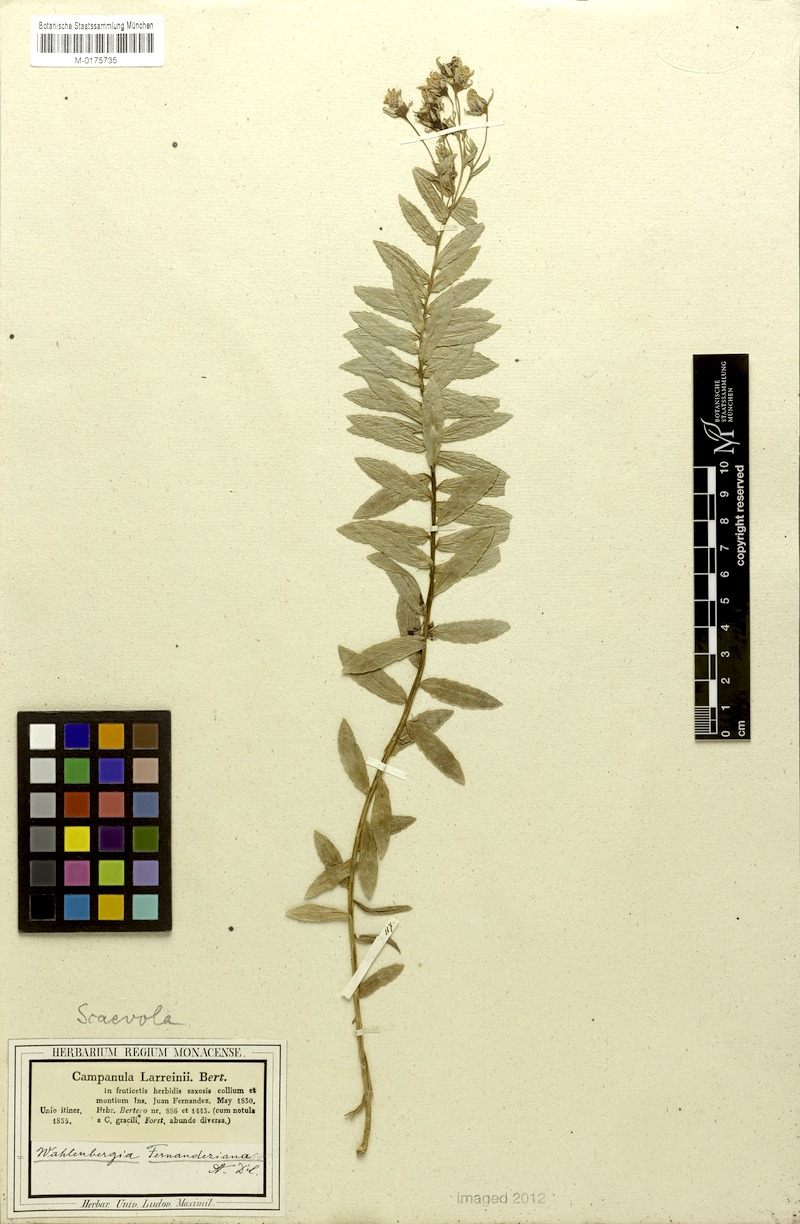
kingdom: Plantae
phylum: Tracheophyta
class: Magnoliopsida
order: Asterales
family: Campanulaceae
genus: Wahlenbergia
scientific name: Wahlenbergia fernandeziana
